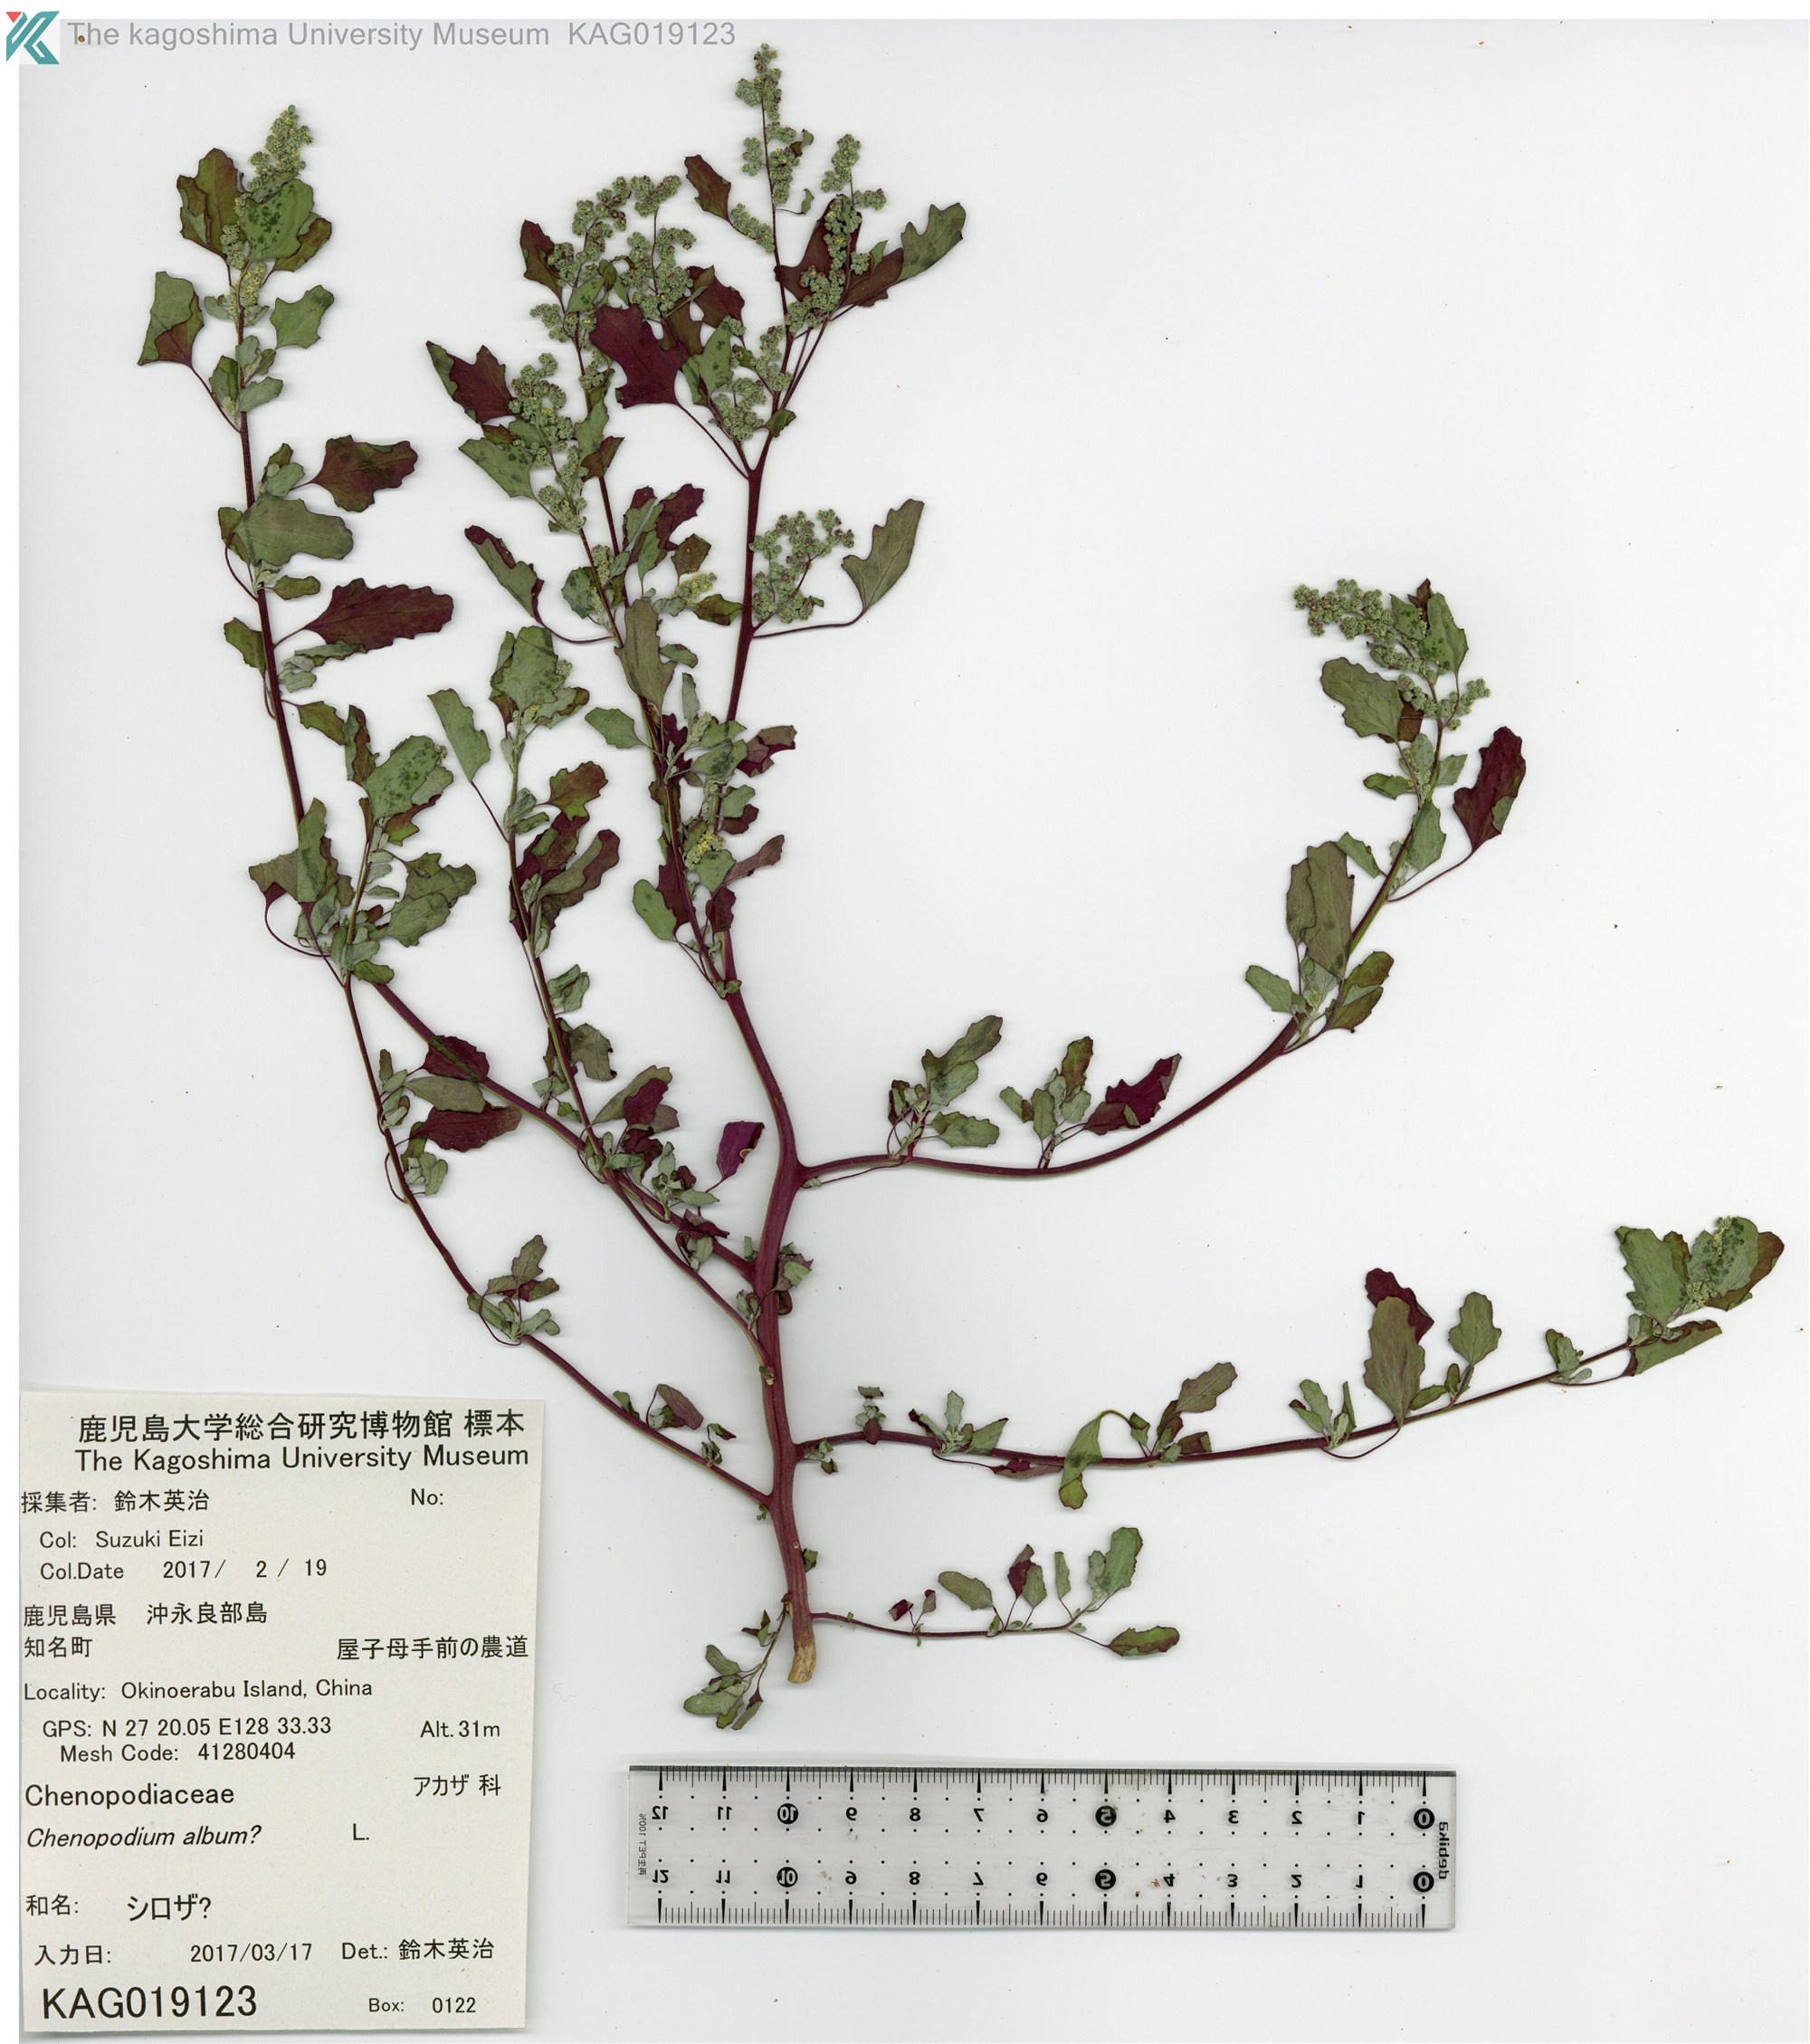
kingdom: Plantae
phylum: Tracheophyta
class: Magnoliopsida
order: Caryophyllales
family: Amaranthaceae
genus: Chenopodium
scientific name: Chenopodium
